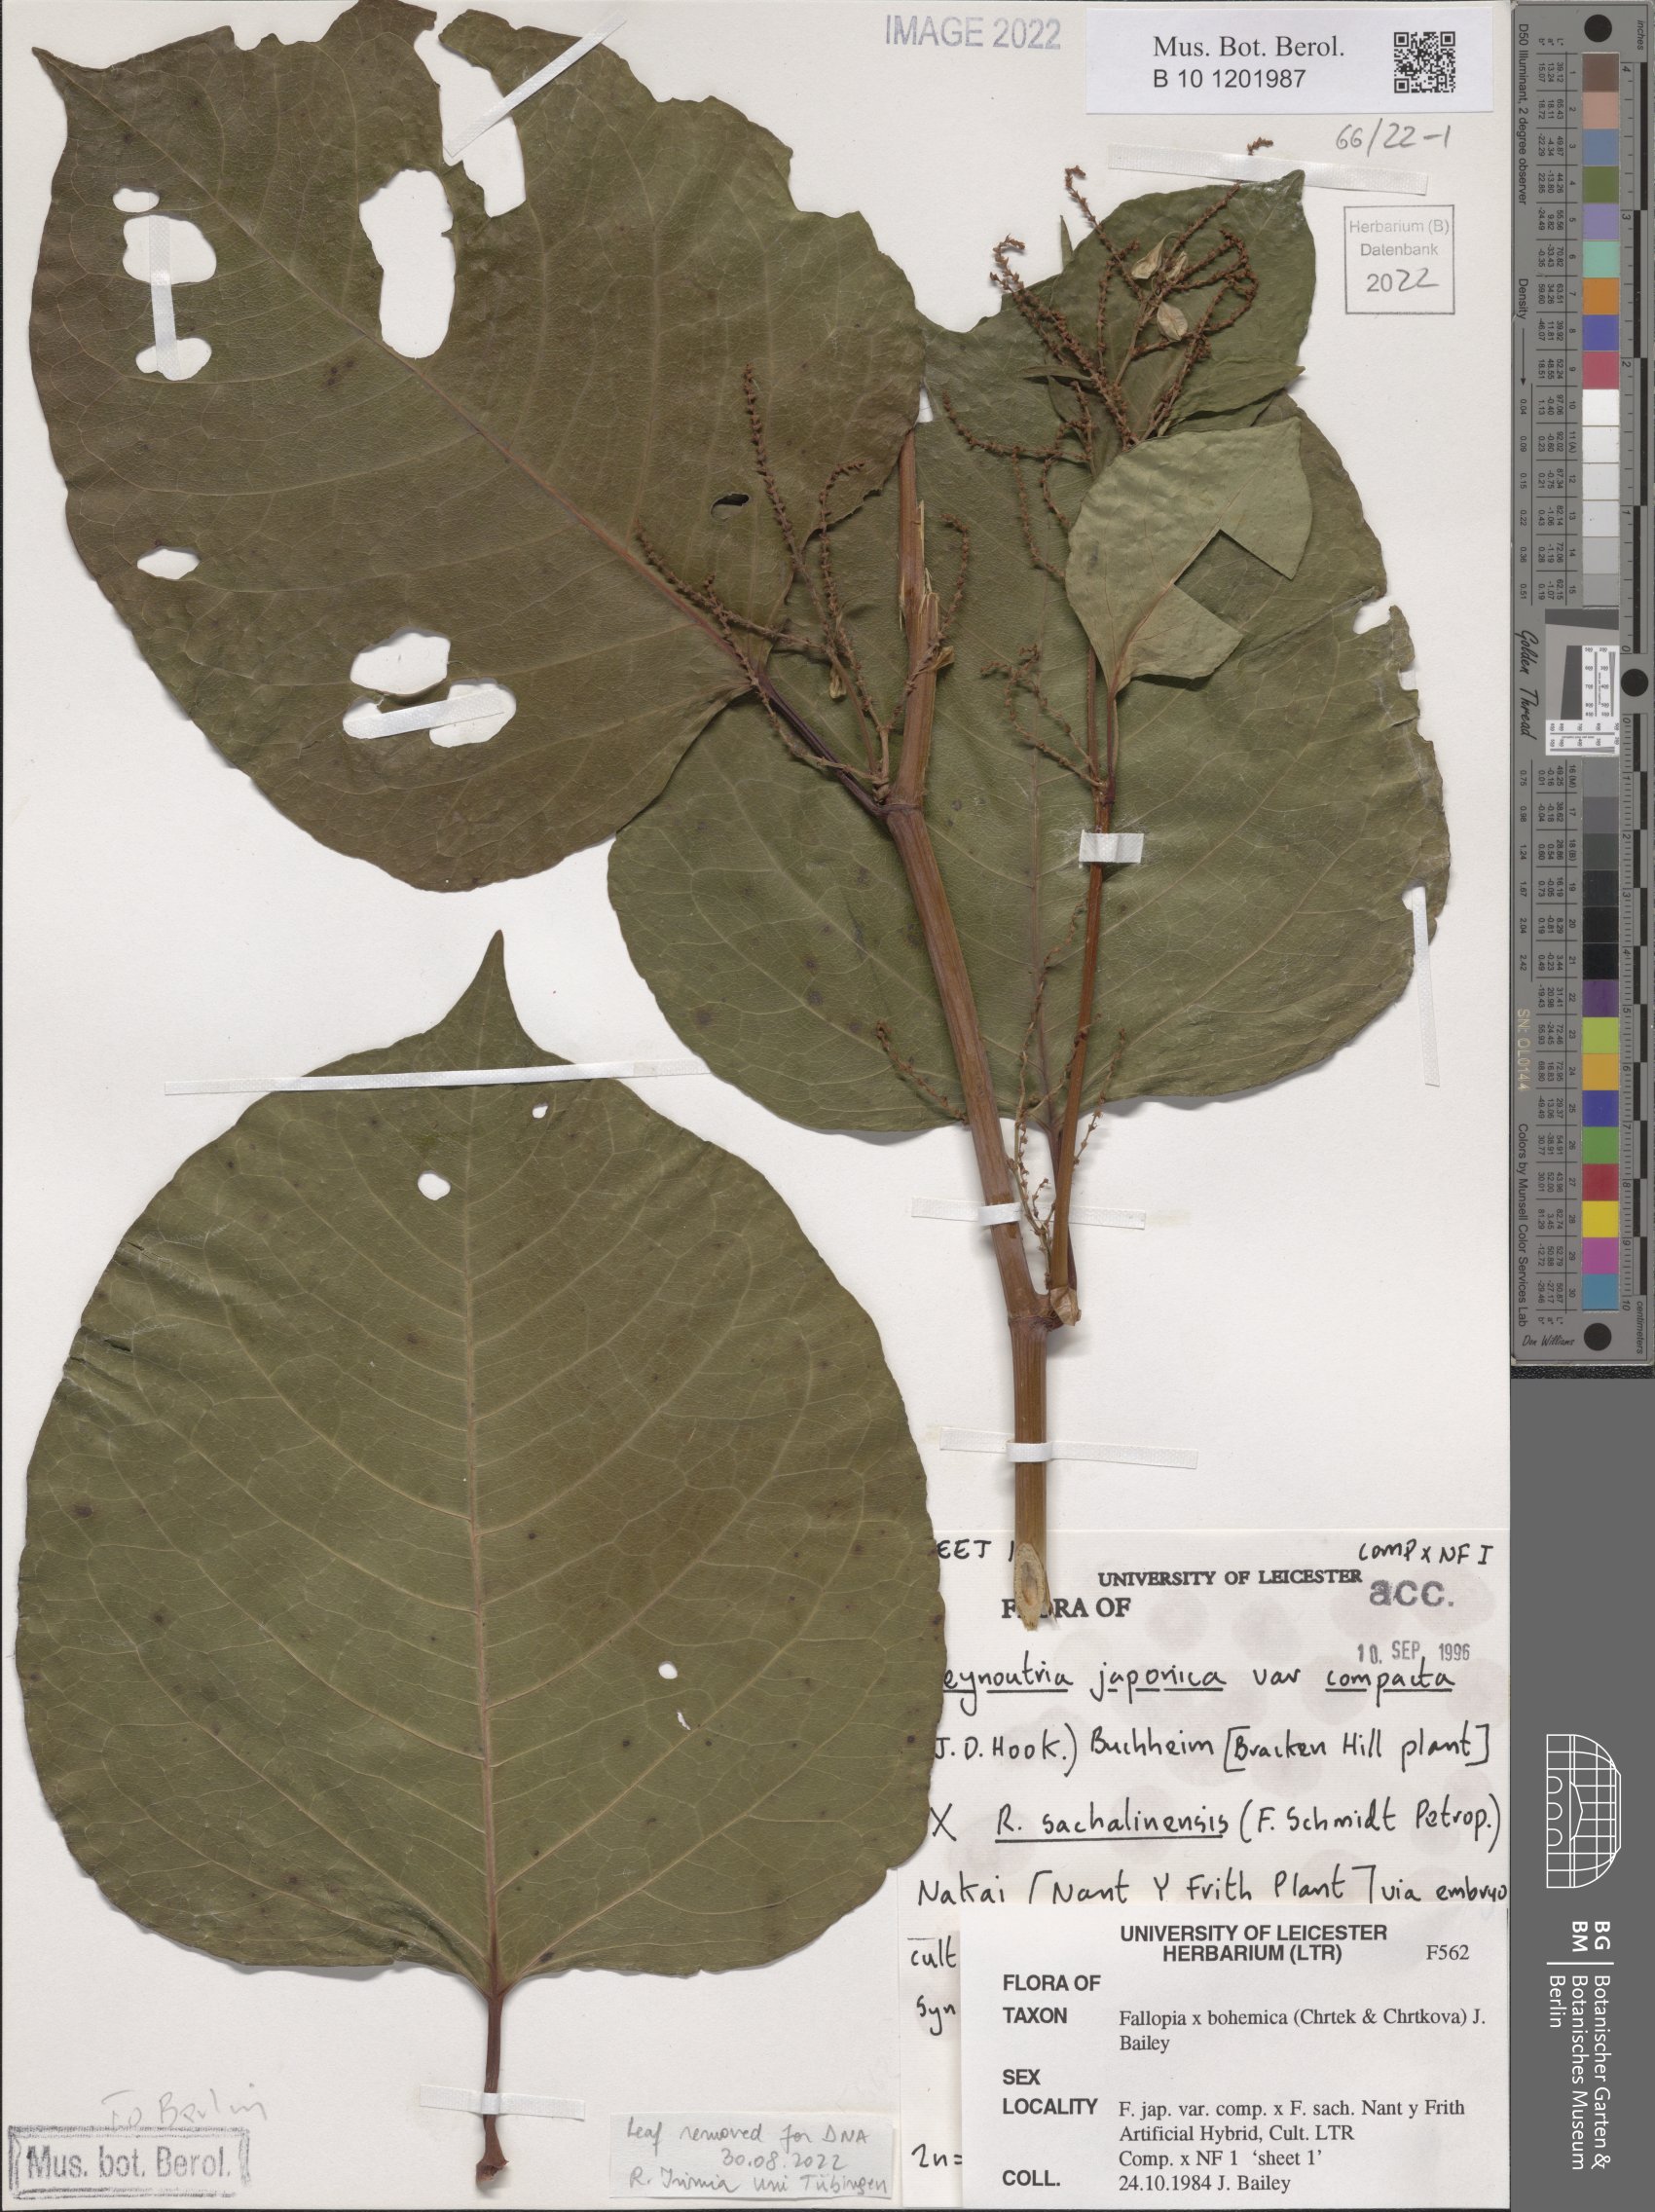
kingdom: Plantae
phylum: Tracheophyta
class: Magnoliopsida
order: Caryophyllales
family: Polygonaceae
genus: Reynoutria
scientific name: Reynoutria bohemica
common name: Bohemian knotweed
